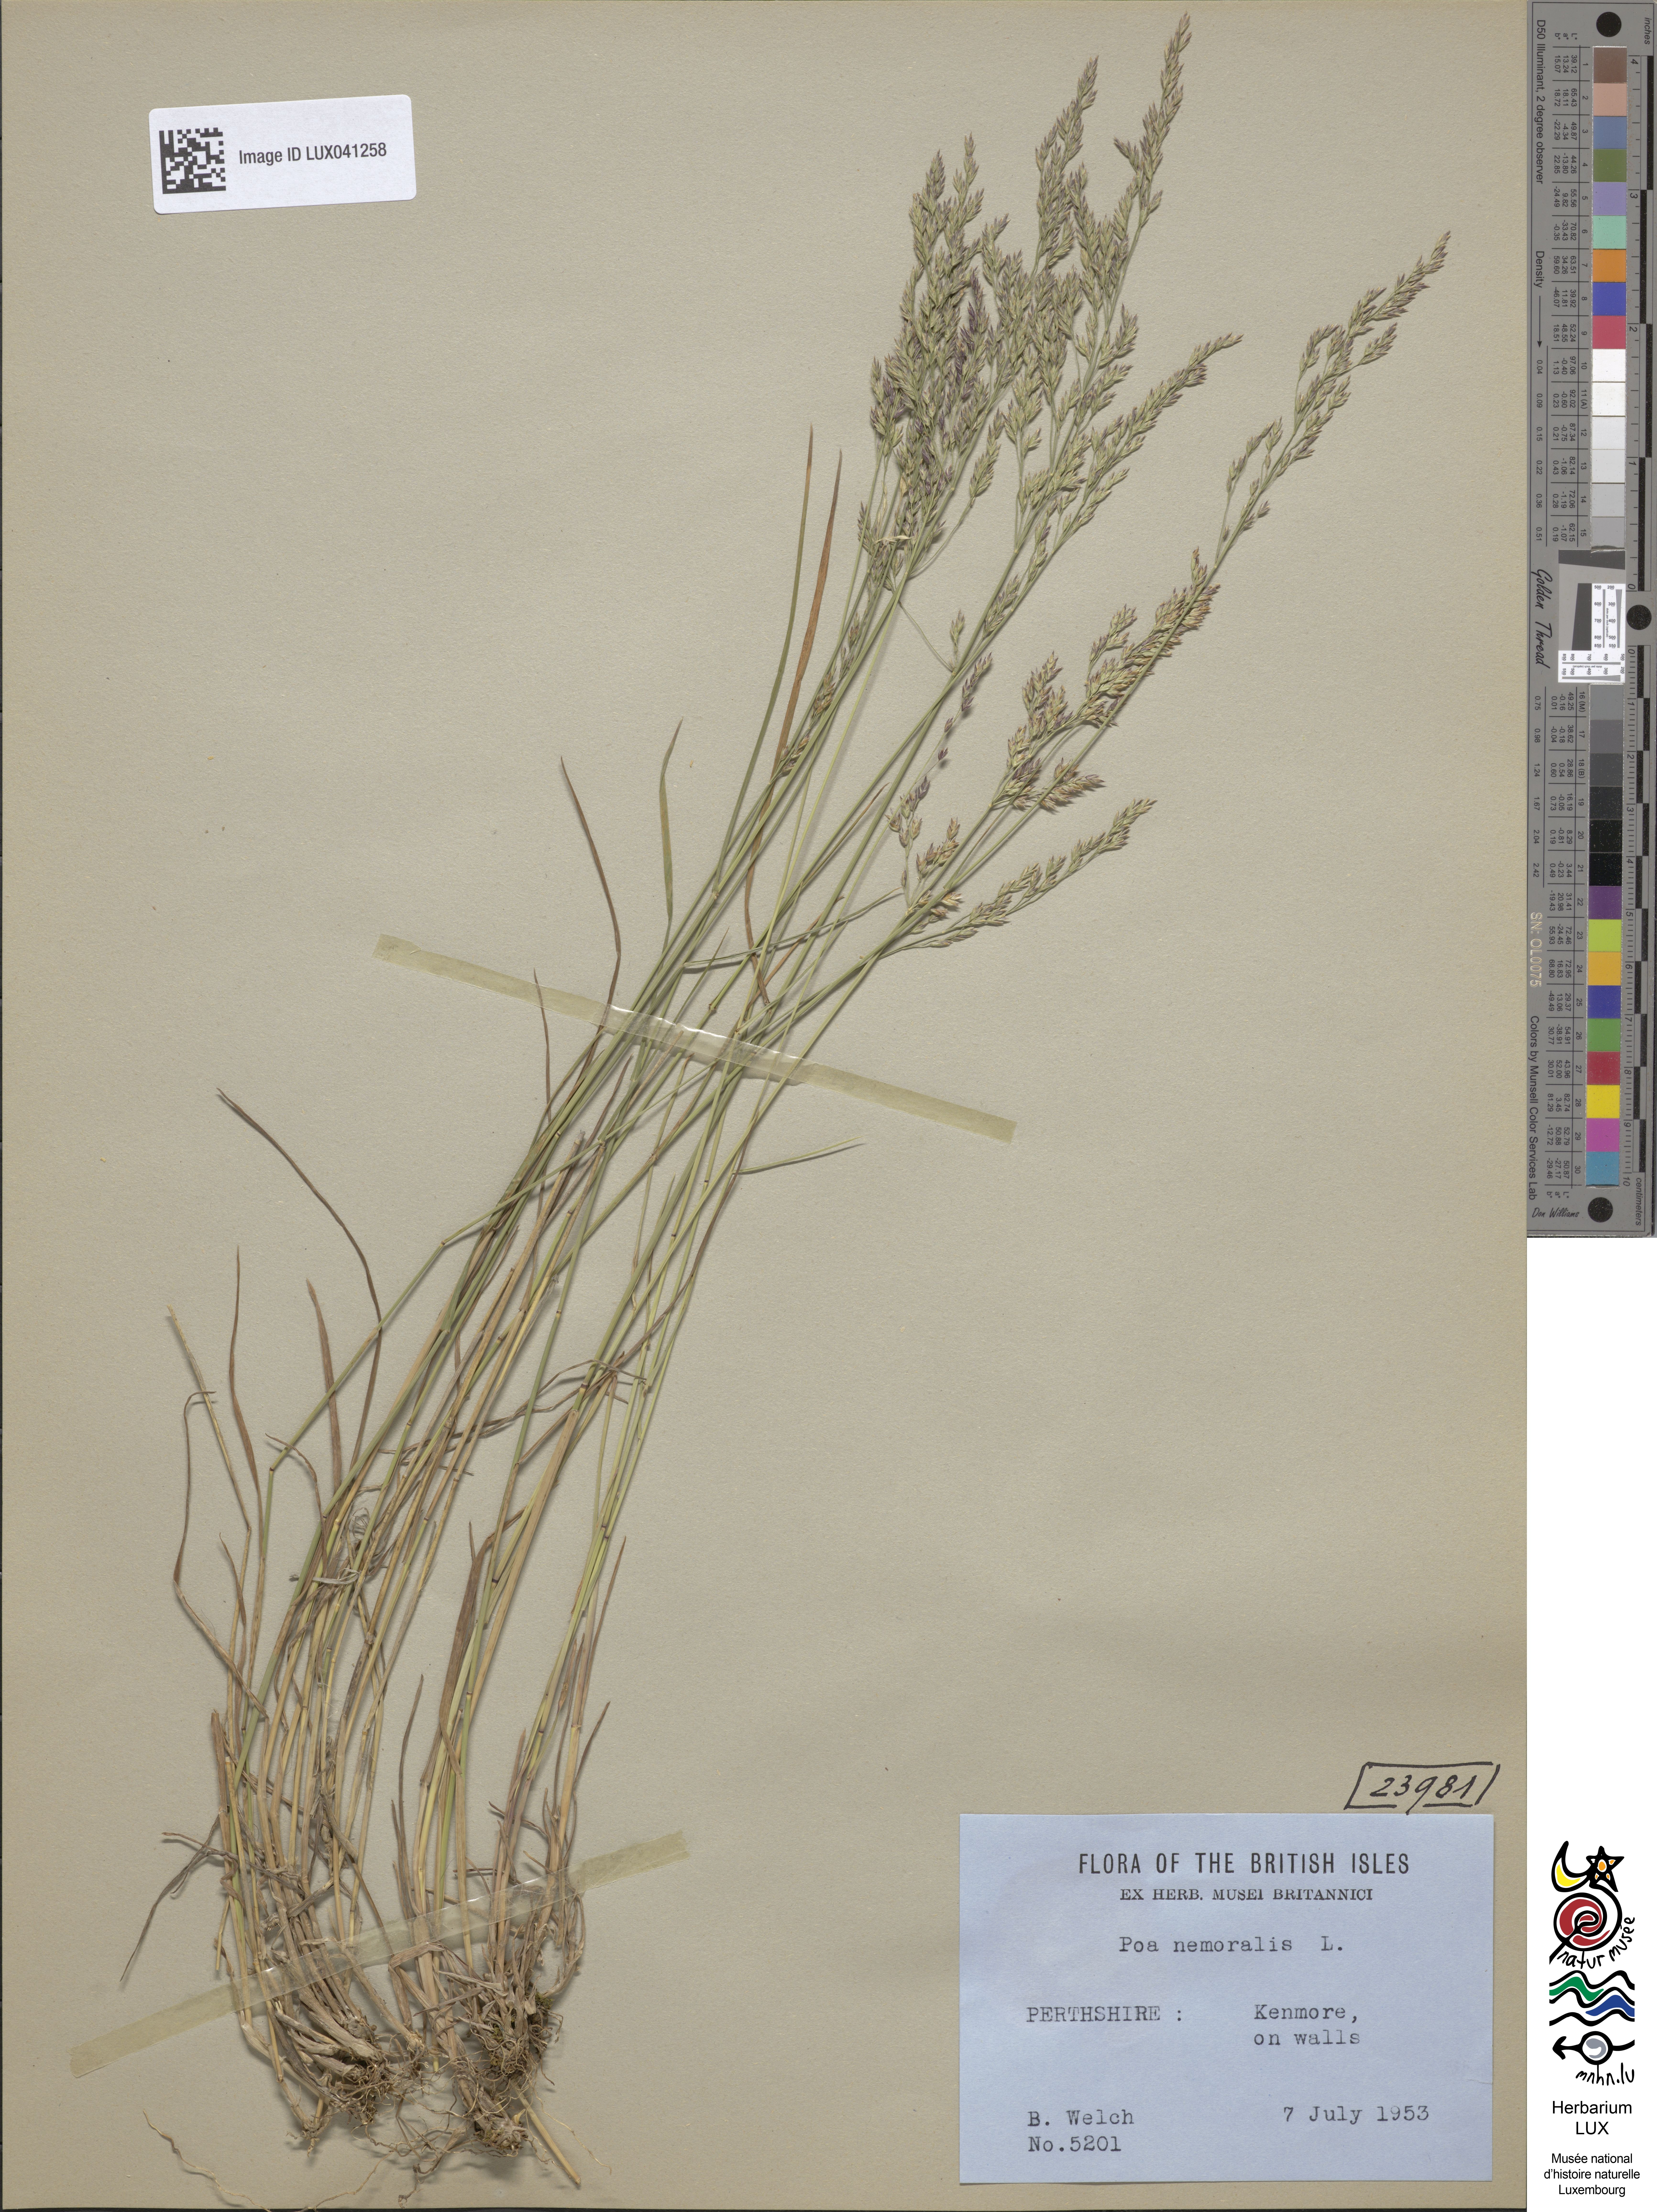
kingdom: Plantae
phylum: Tracheophyta
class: Liliopsida
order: Poales
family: Poaceae
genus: Poa
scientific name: Poa nemoralis
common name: Wood bluegrass
